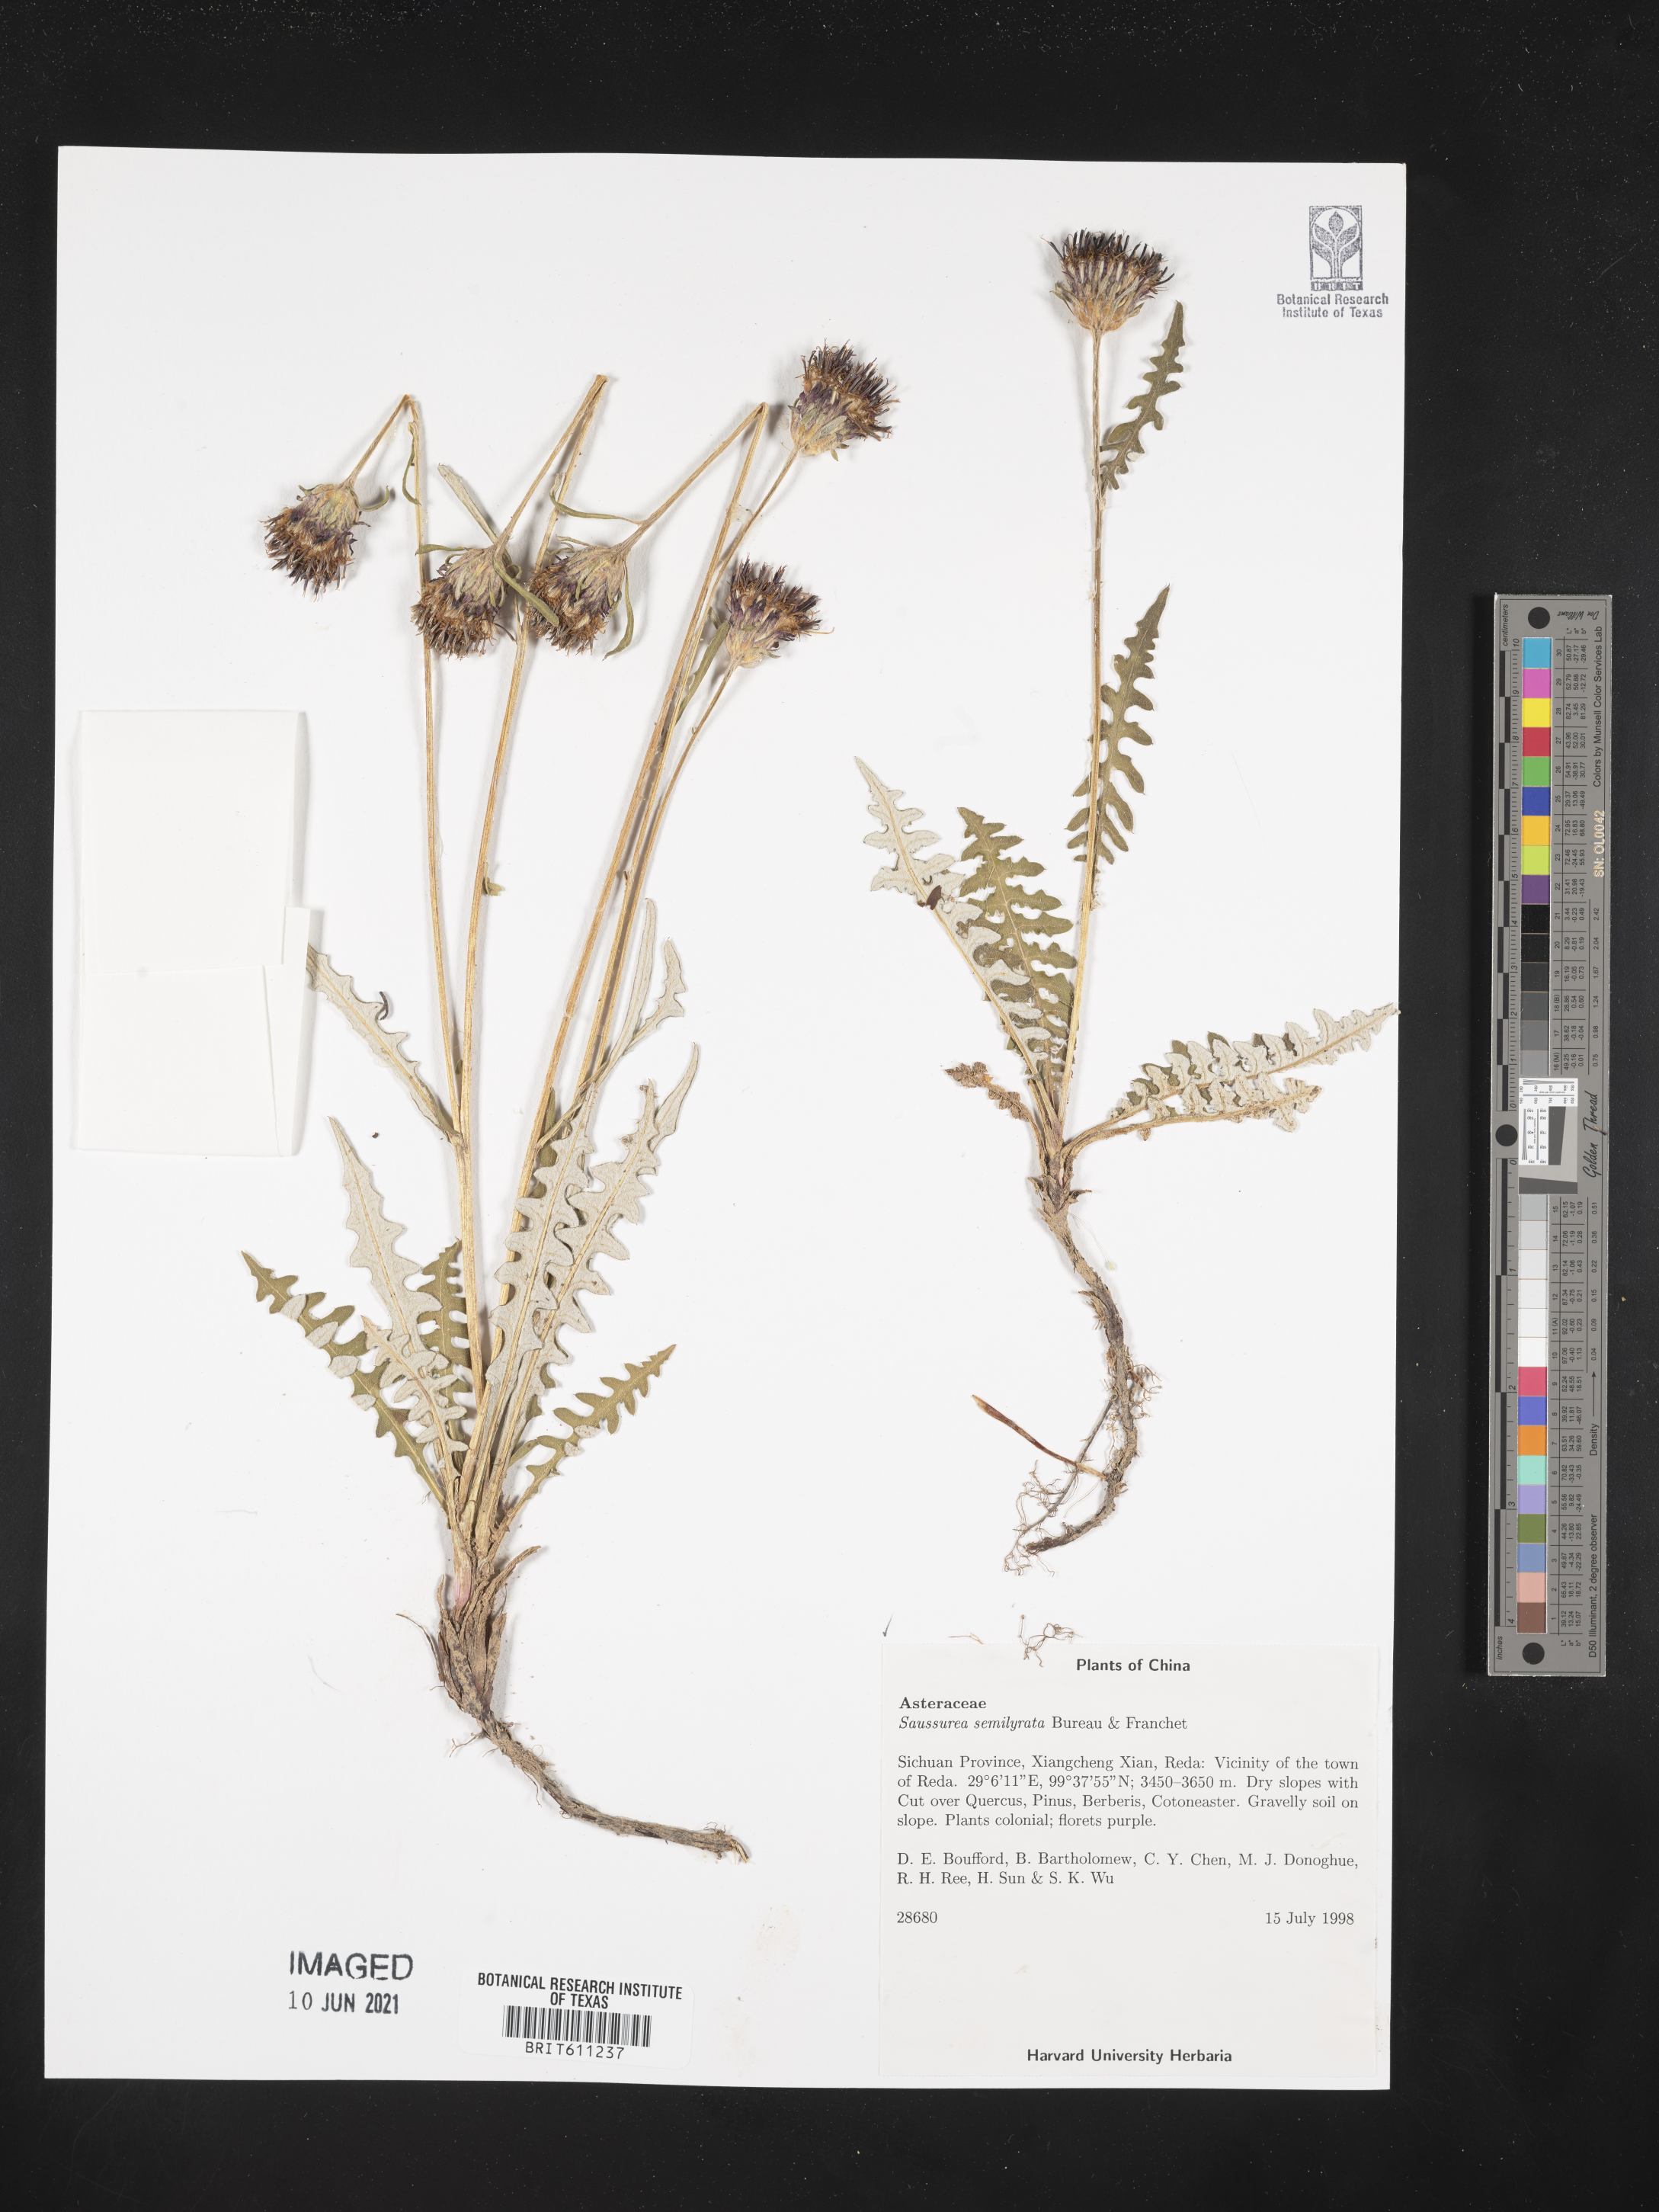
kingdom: Plantae
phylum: Tracheophyta
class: Magnoliopsida
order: Asterales
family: Asteraceae
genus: Saussurea
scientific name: Saussurea semilyrata
